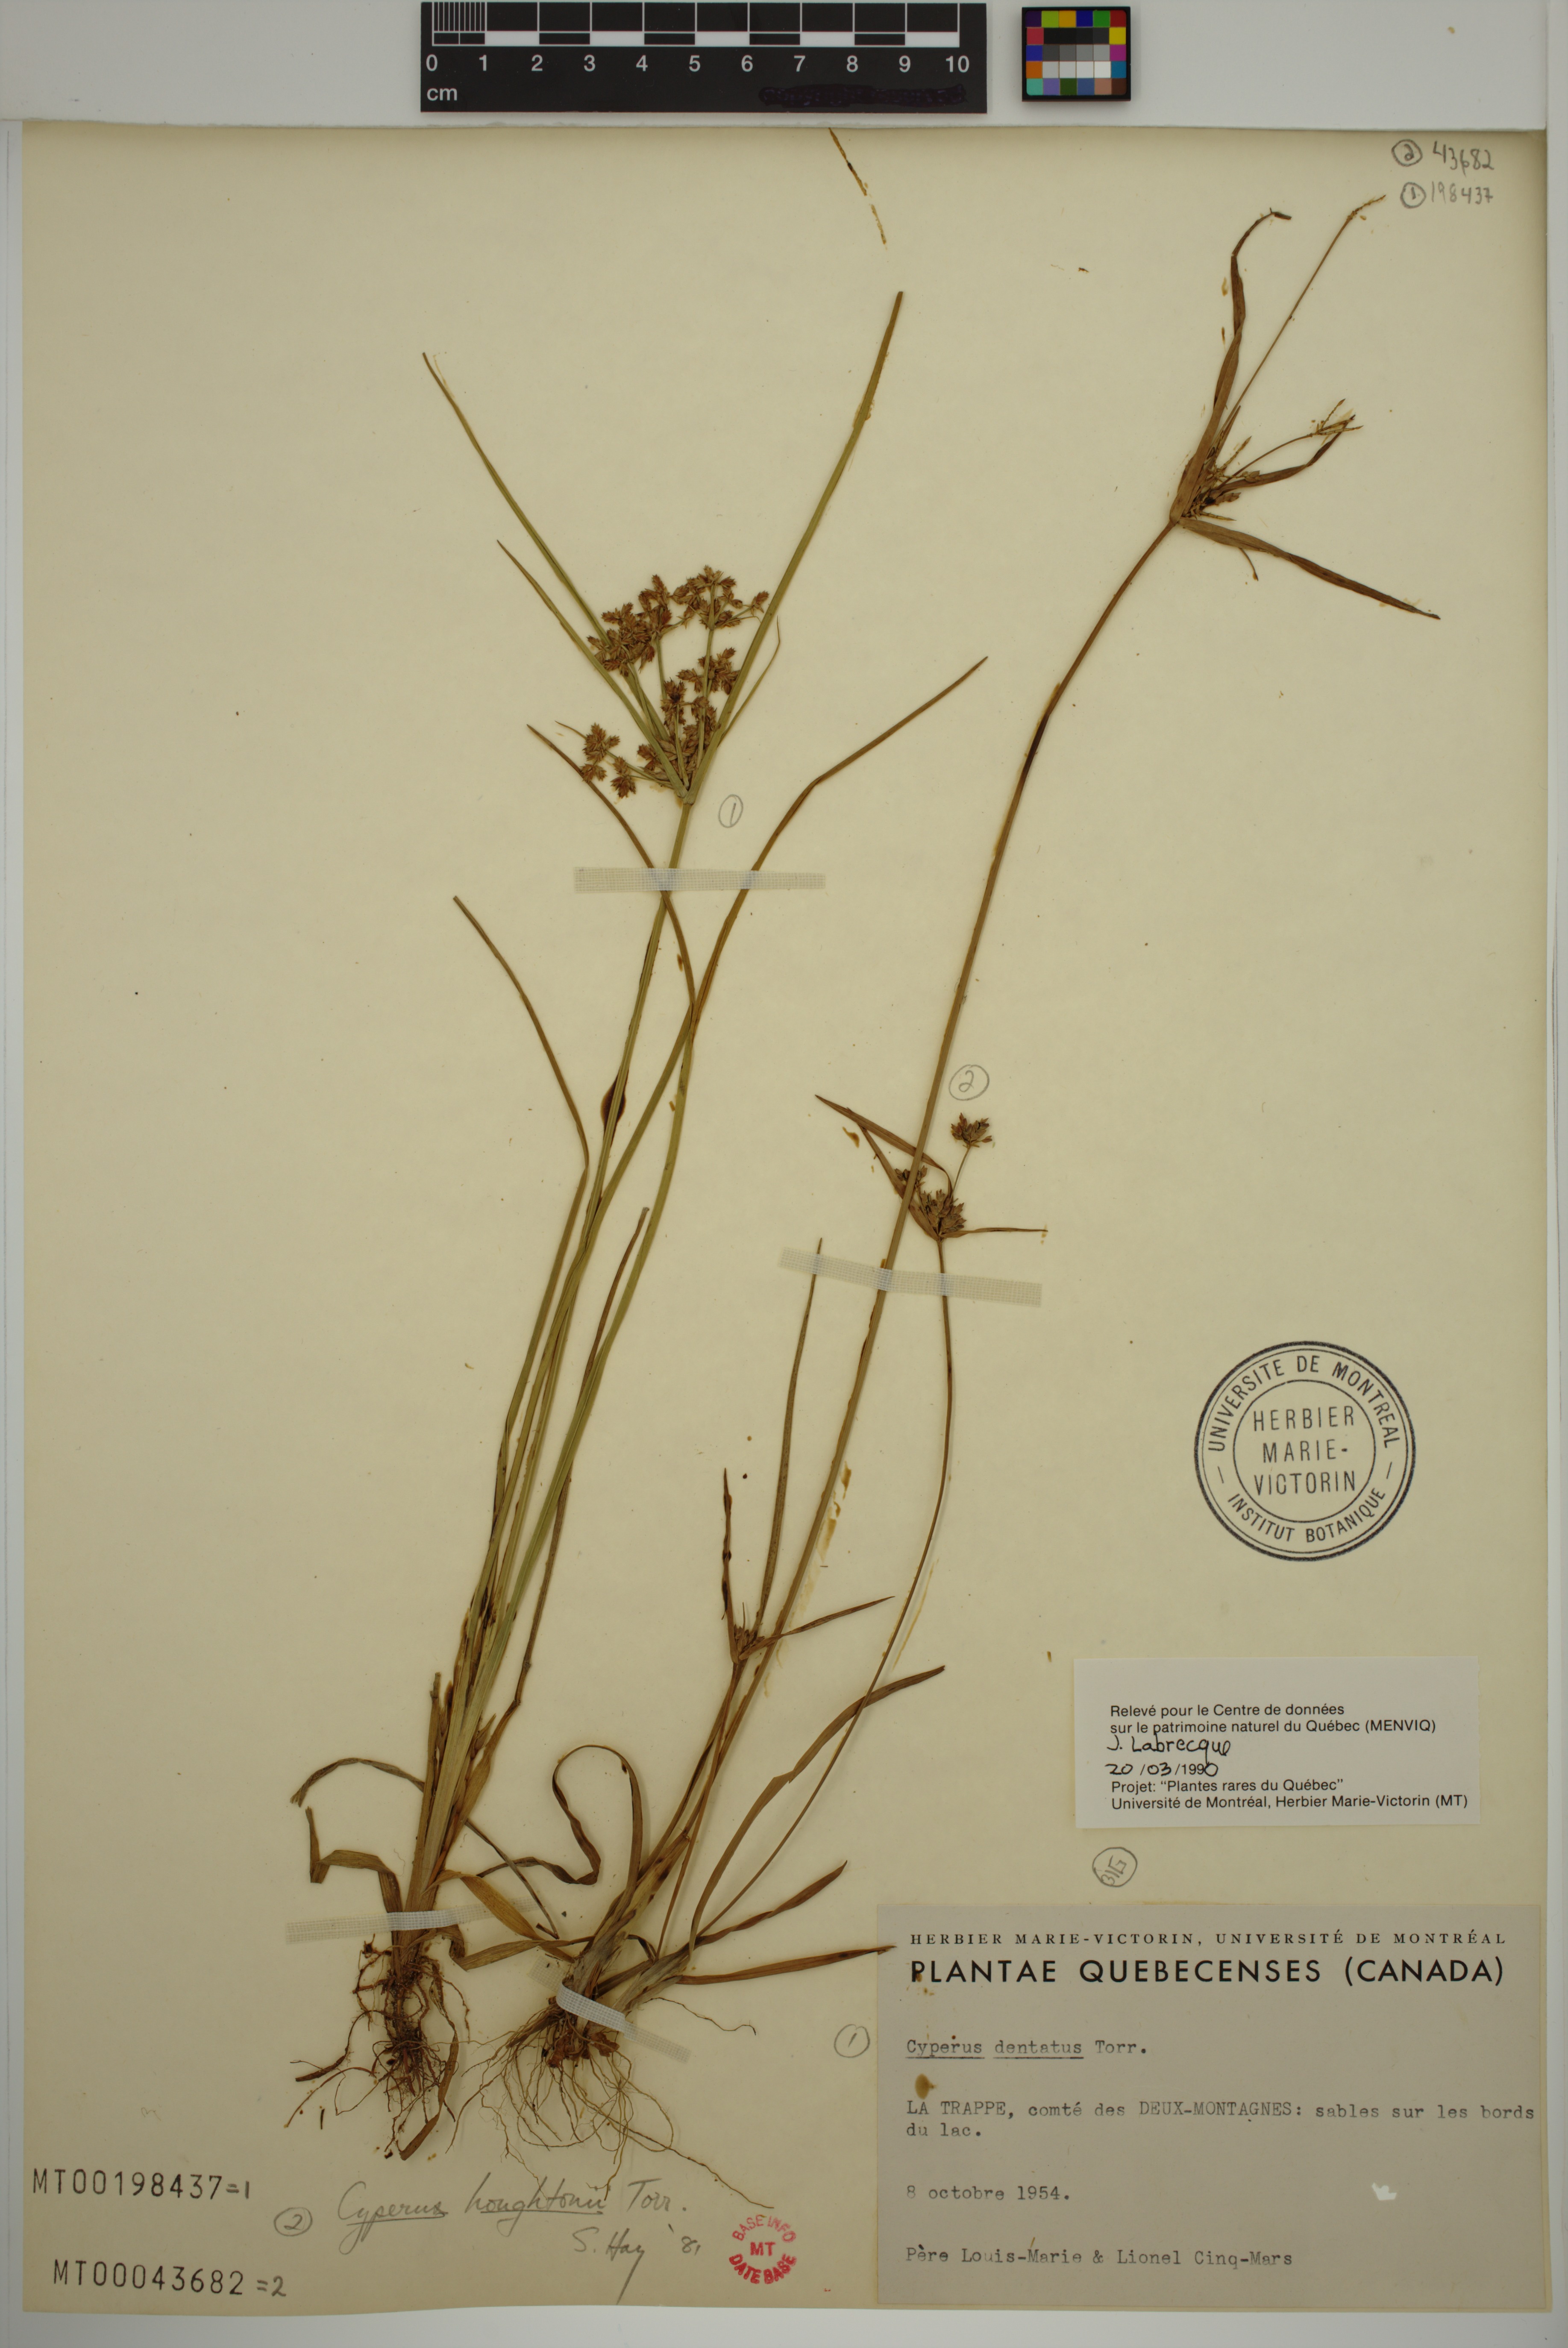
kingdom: Plantae
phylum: Tracheophyta
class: Liliopsida
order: Poales
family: Cyperaceae
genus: Cyperus
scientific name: Cyperus houghtonii
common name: Houghton's cyperus
